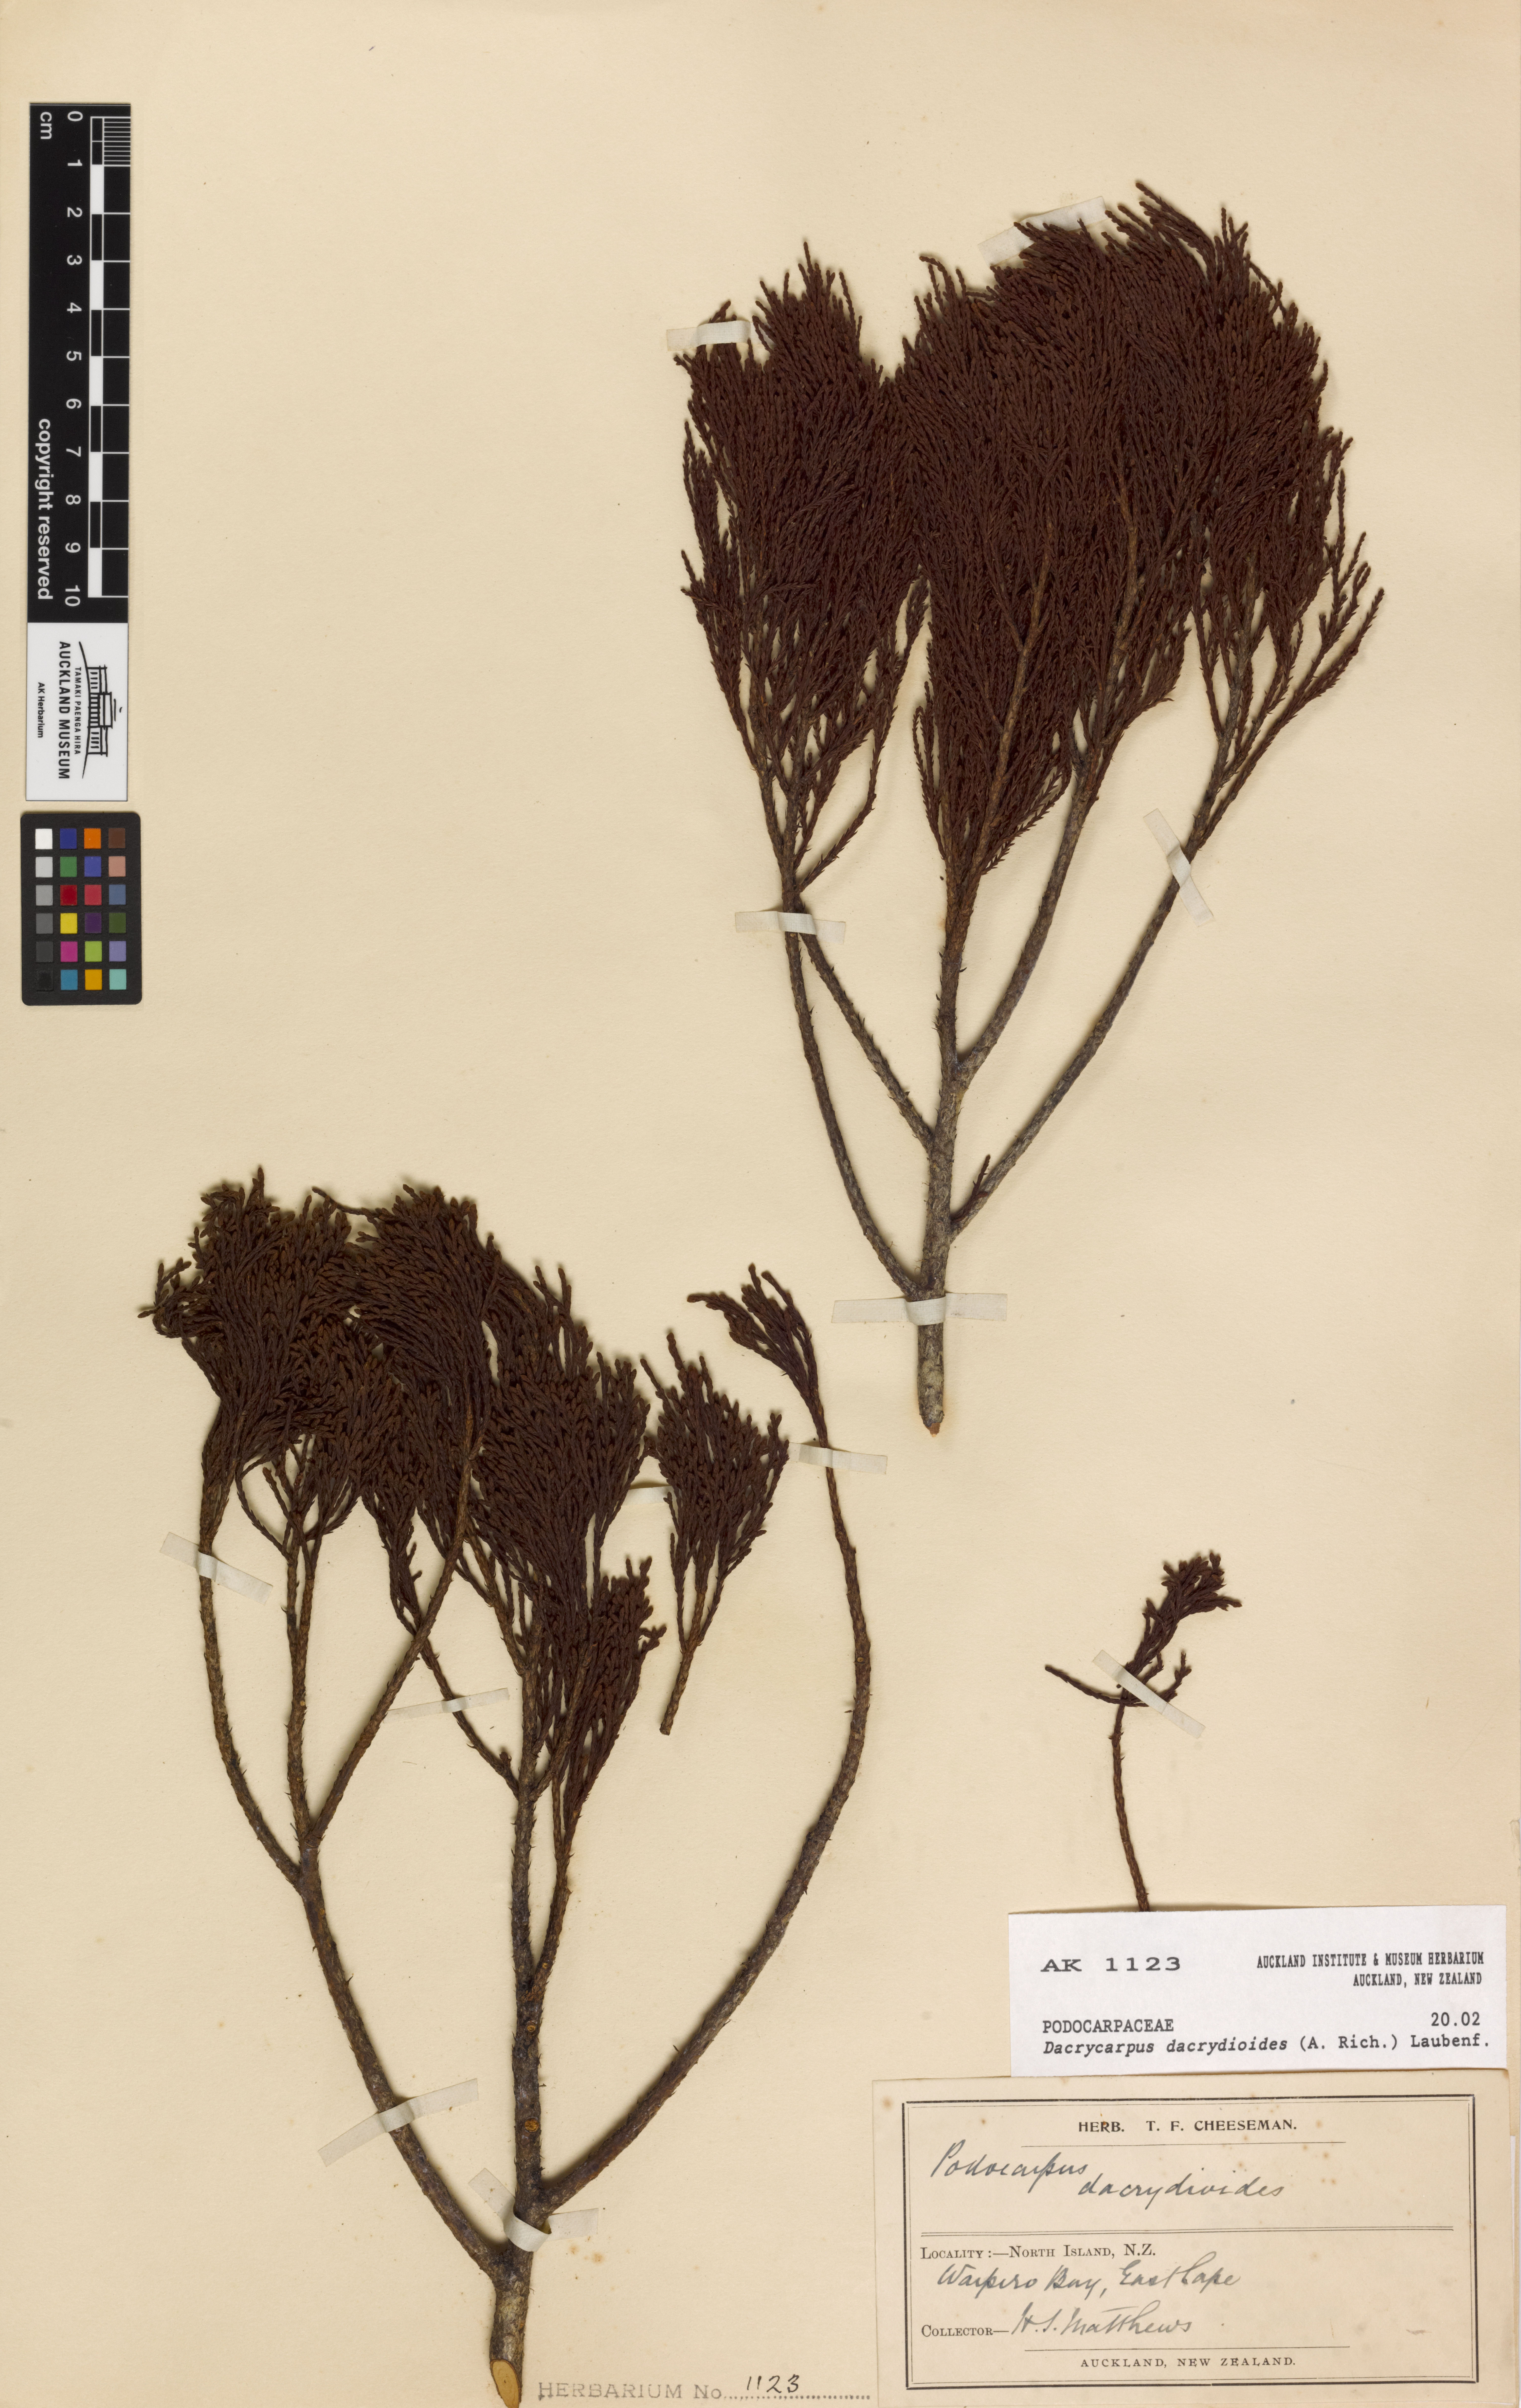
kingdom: Plantae
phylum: Tracheophyta
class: Pinopsida
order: Pinales
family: Podocarpaceae
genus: Dacrycarpus
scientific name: Dacrycarpus dacrydioides
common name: White pine
